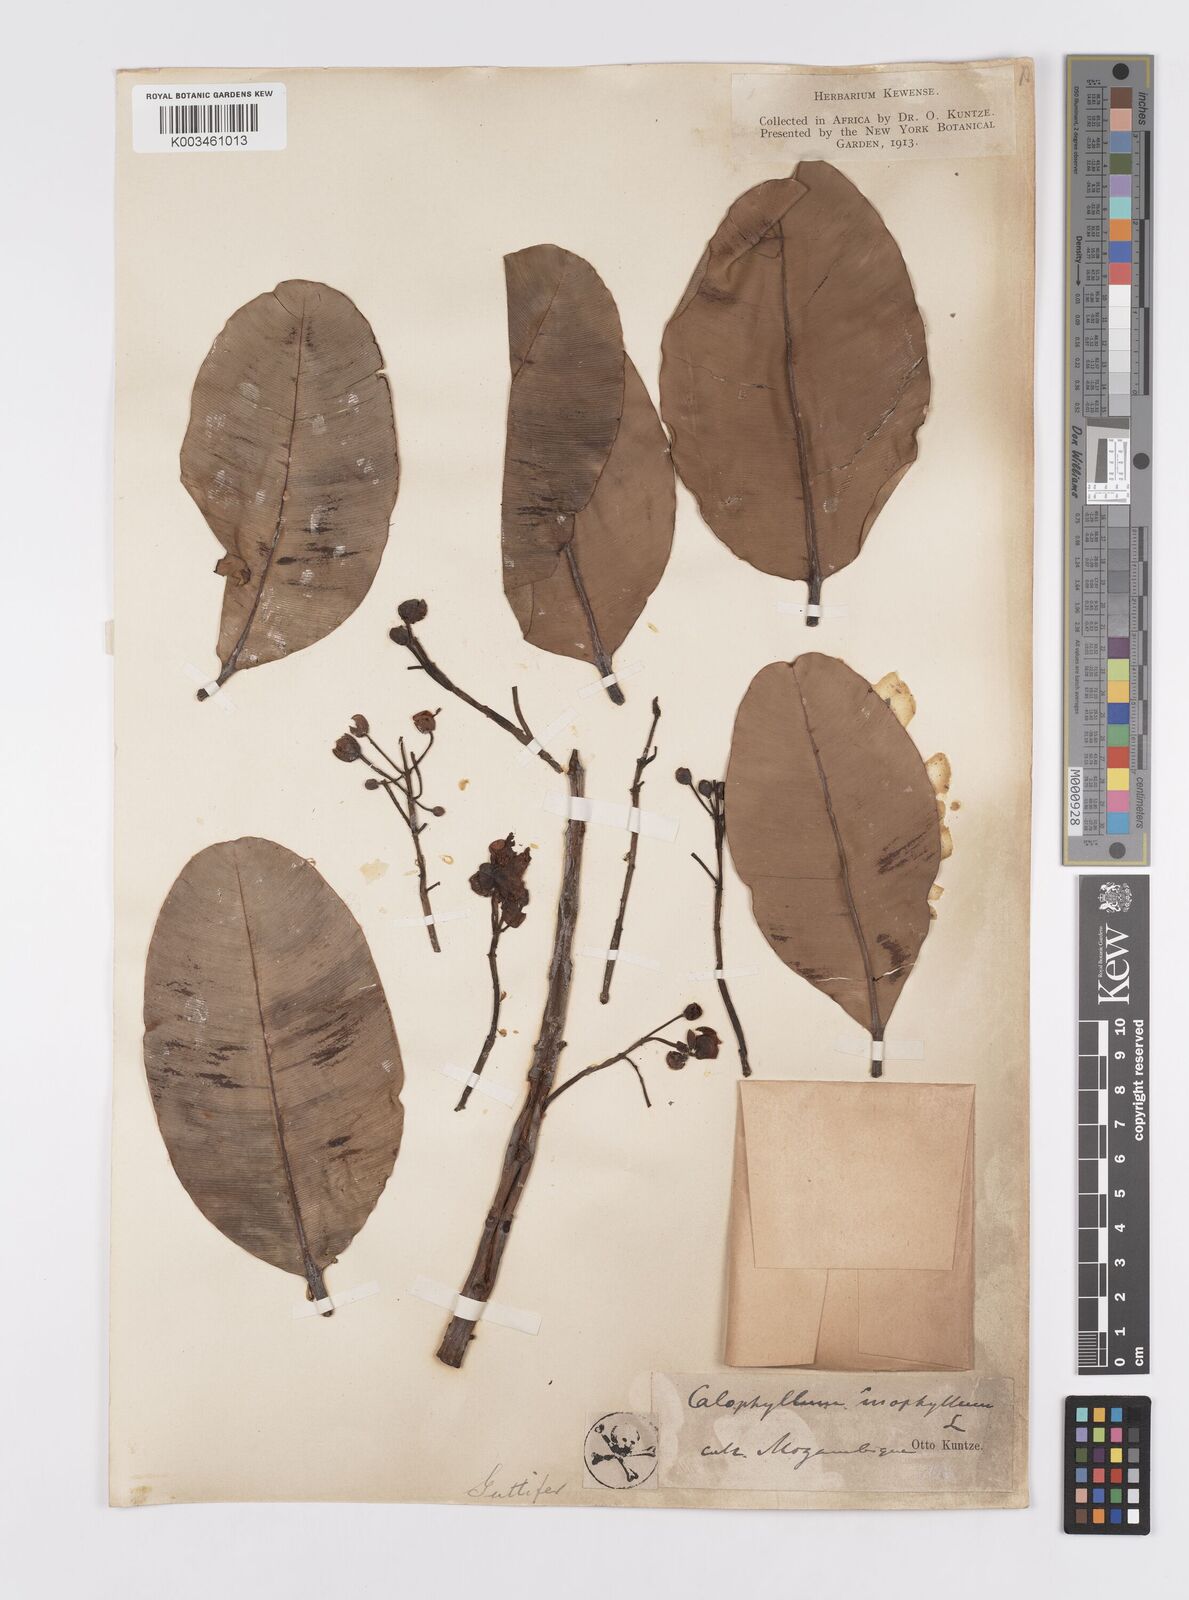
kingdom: Plantae
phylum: Tracheophyta
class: Magnoliopsida
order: Malpighiales
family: Calophyllaceae
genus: Calophyllum
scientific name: Calophyllum inophyllum
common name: Alexandrian laurel
